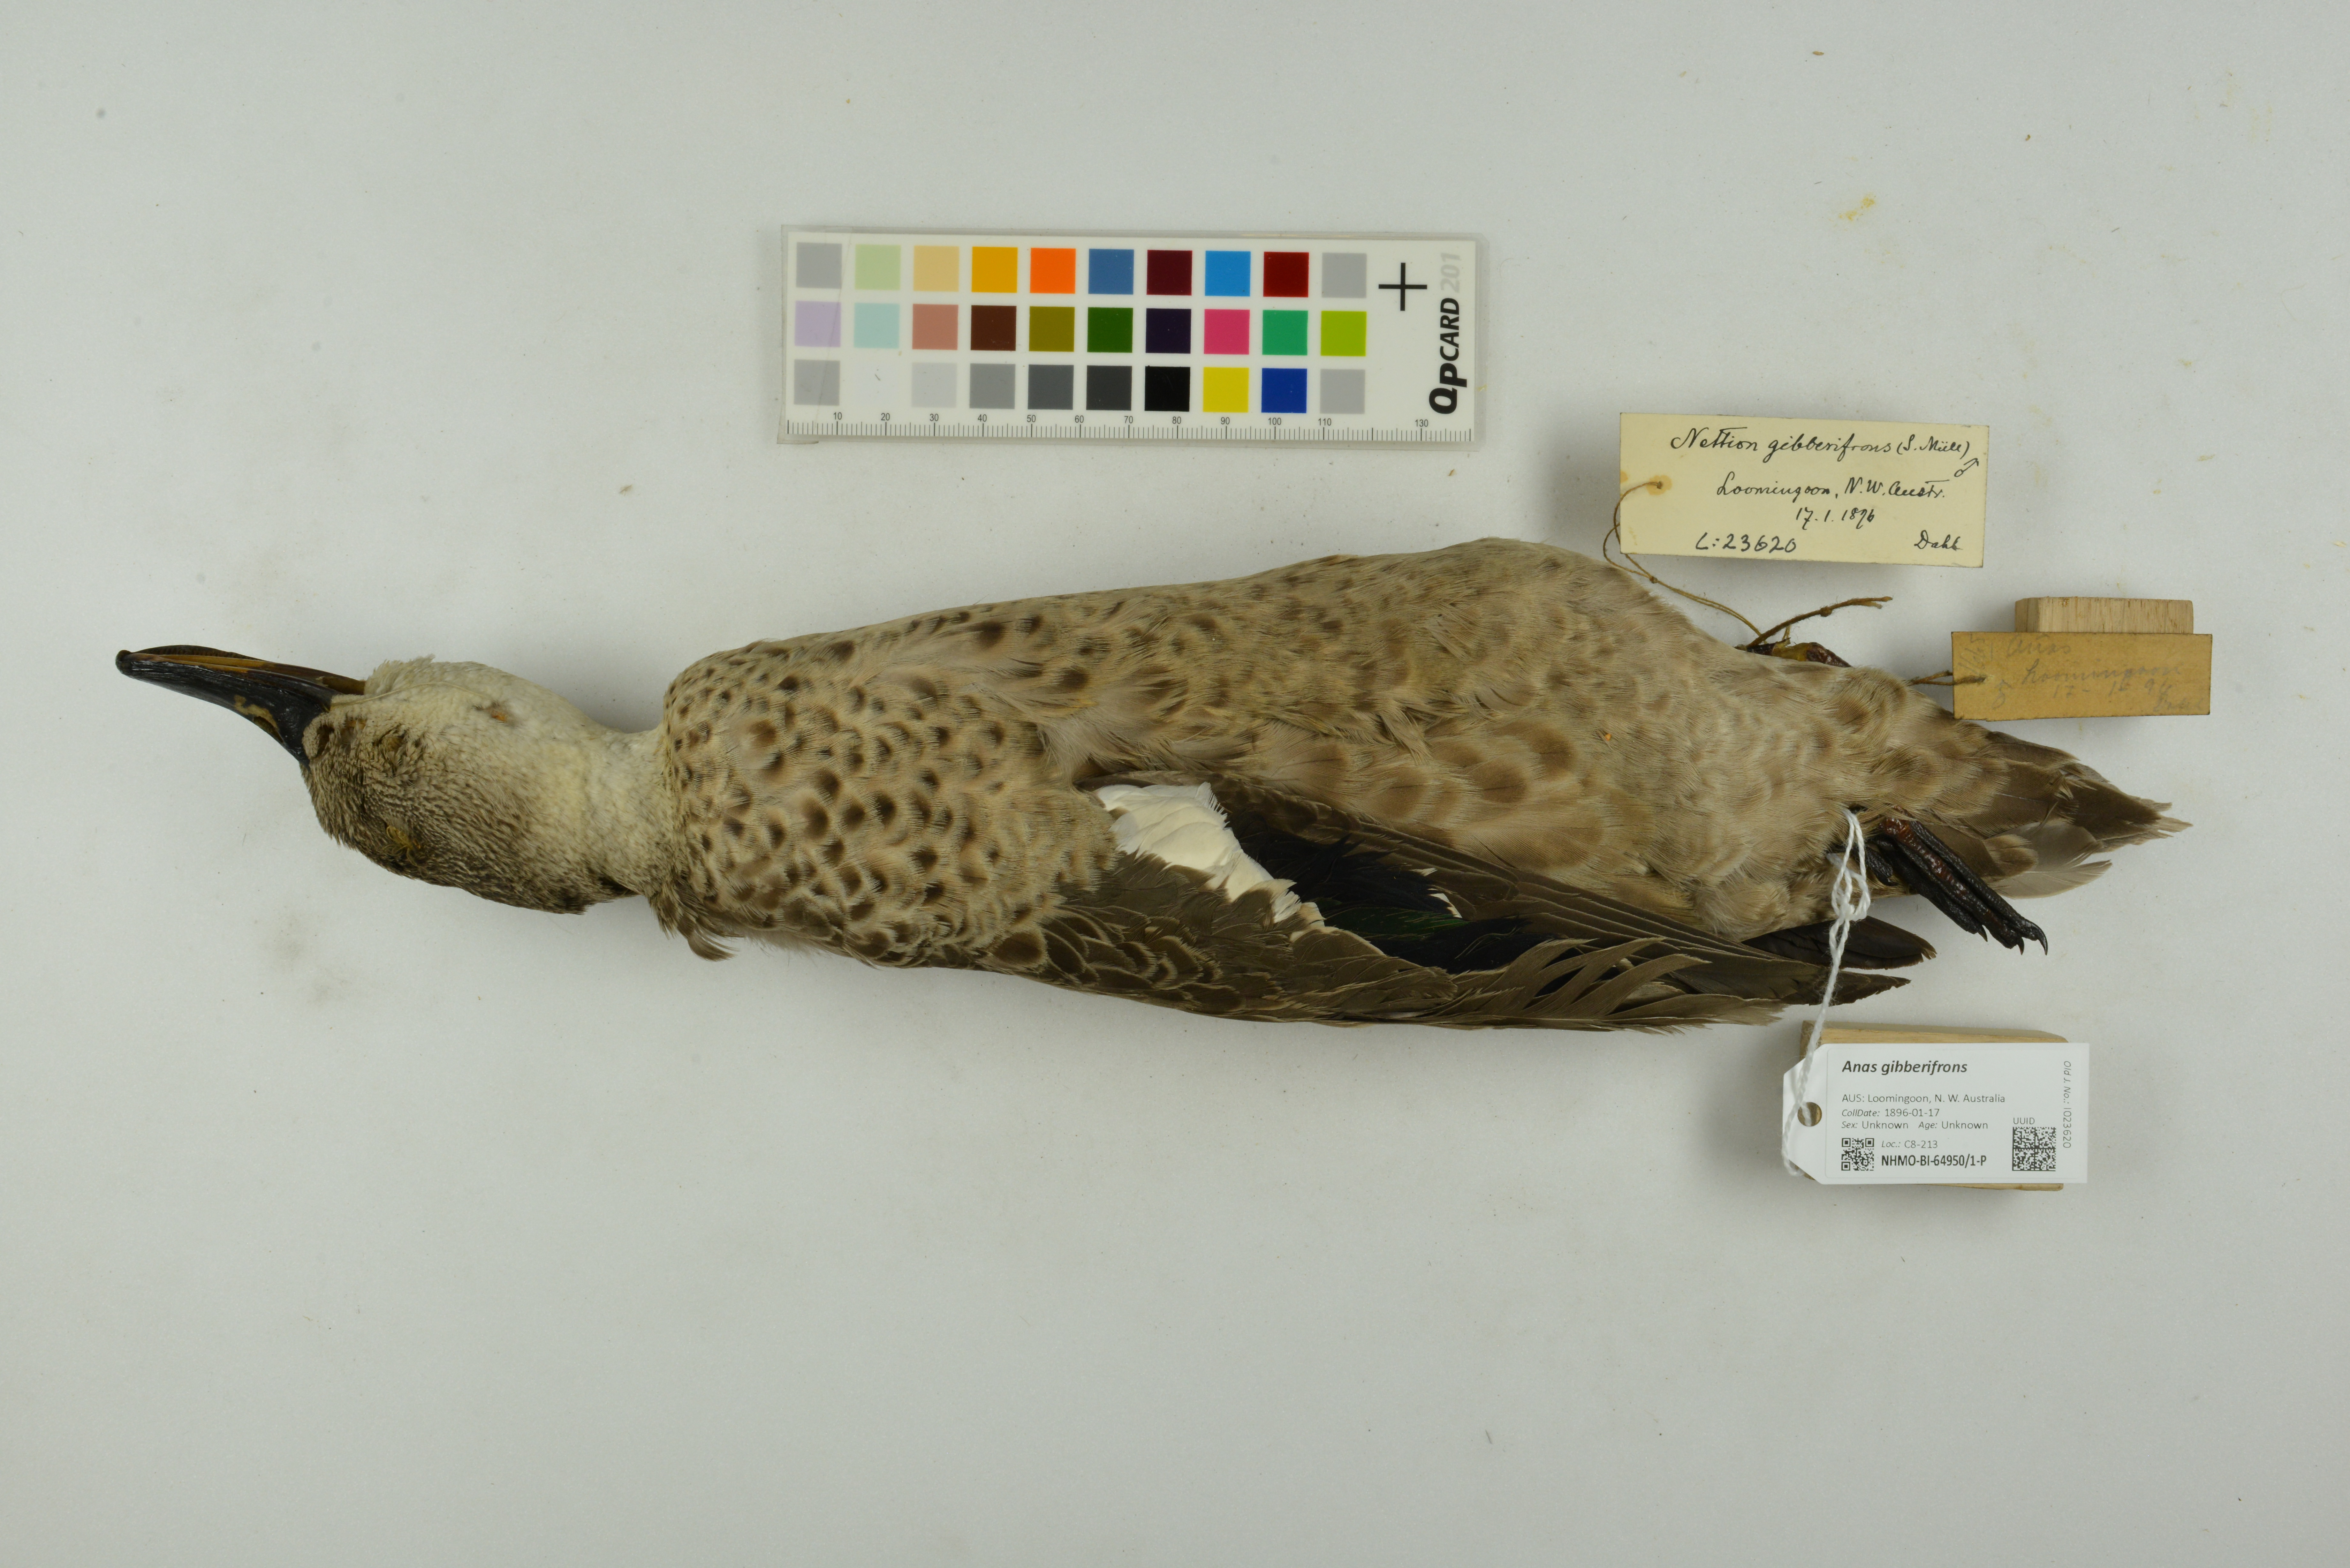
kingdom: Animalia
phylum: Chordata
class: Aves
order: Anseriformes
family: Anatidae
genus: Anas
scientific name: Anas gibberifrons
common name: Sunda teal
